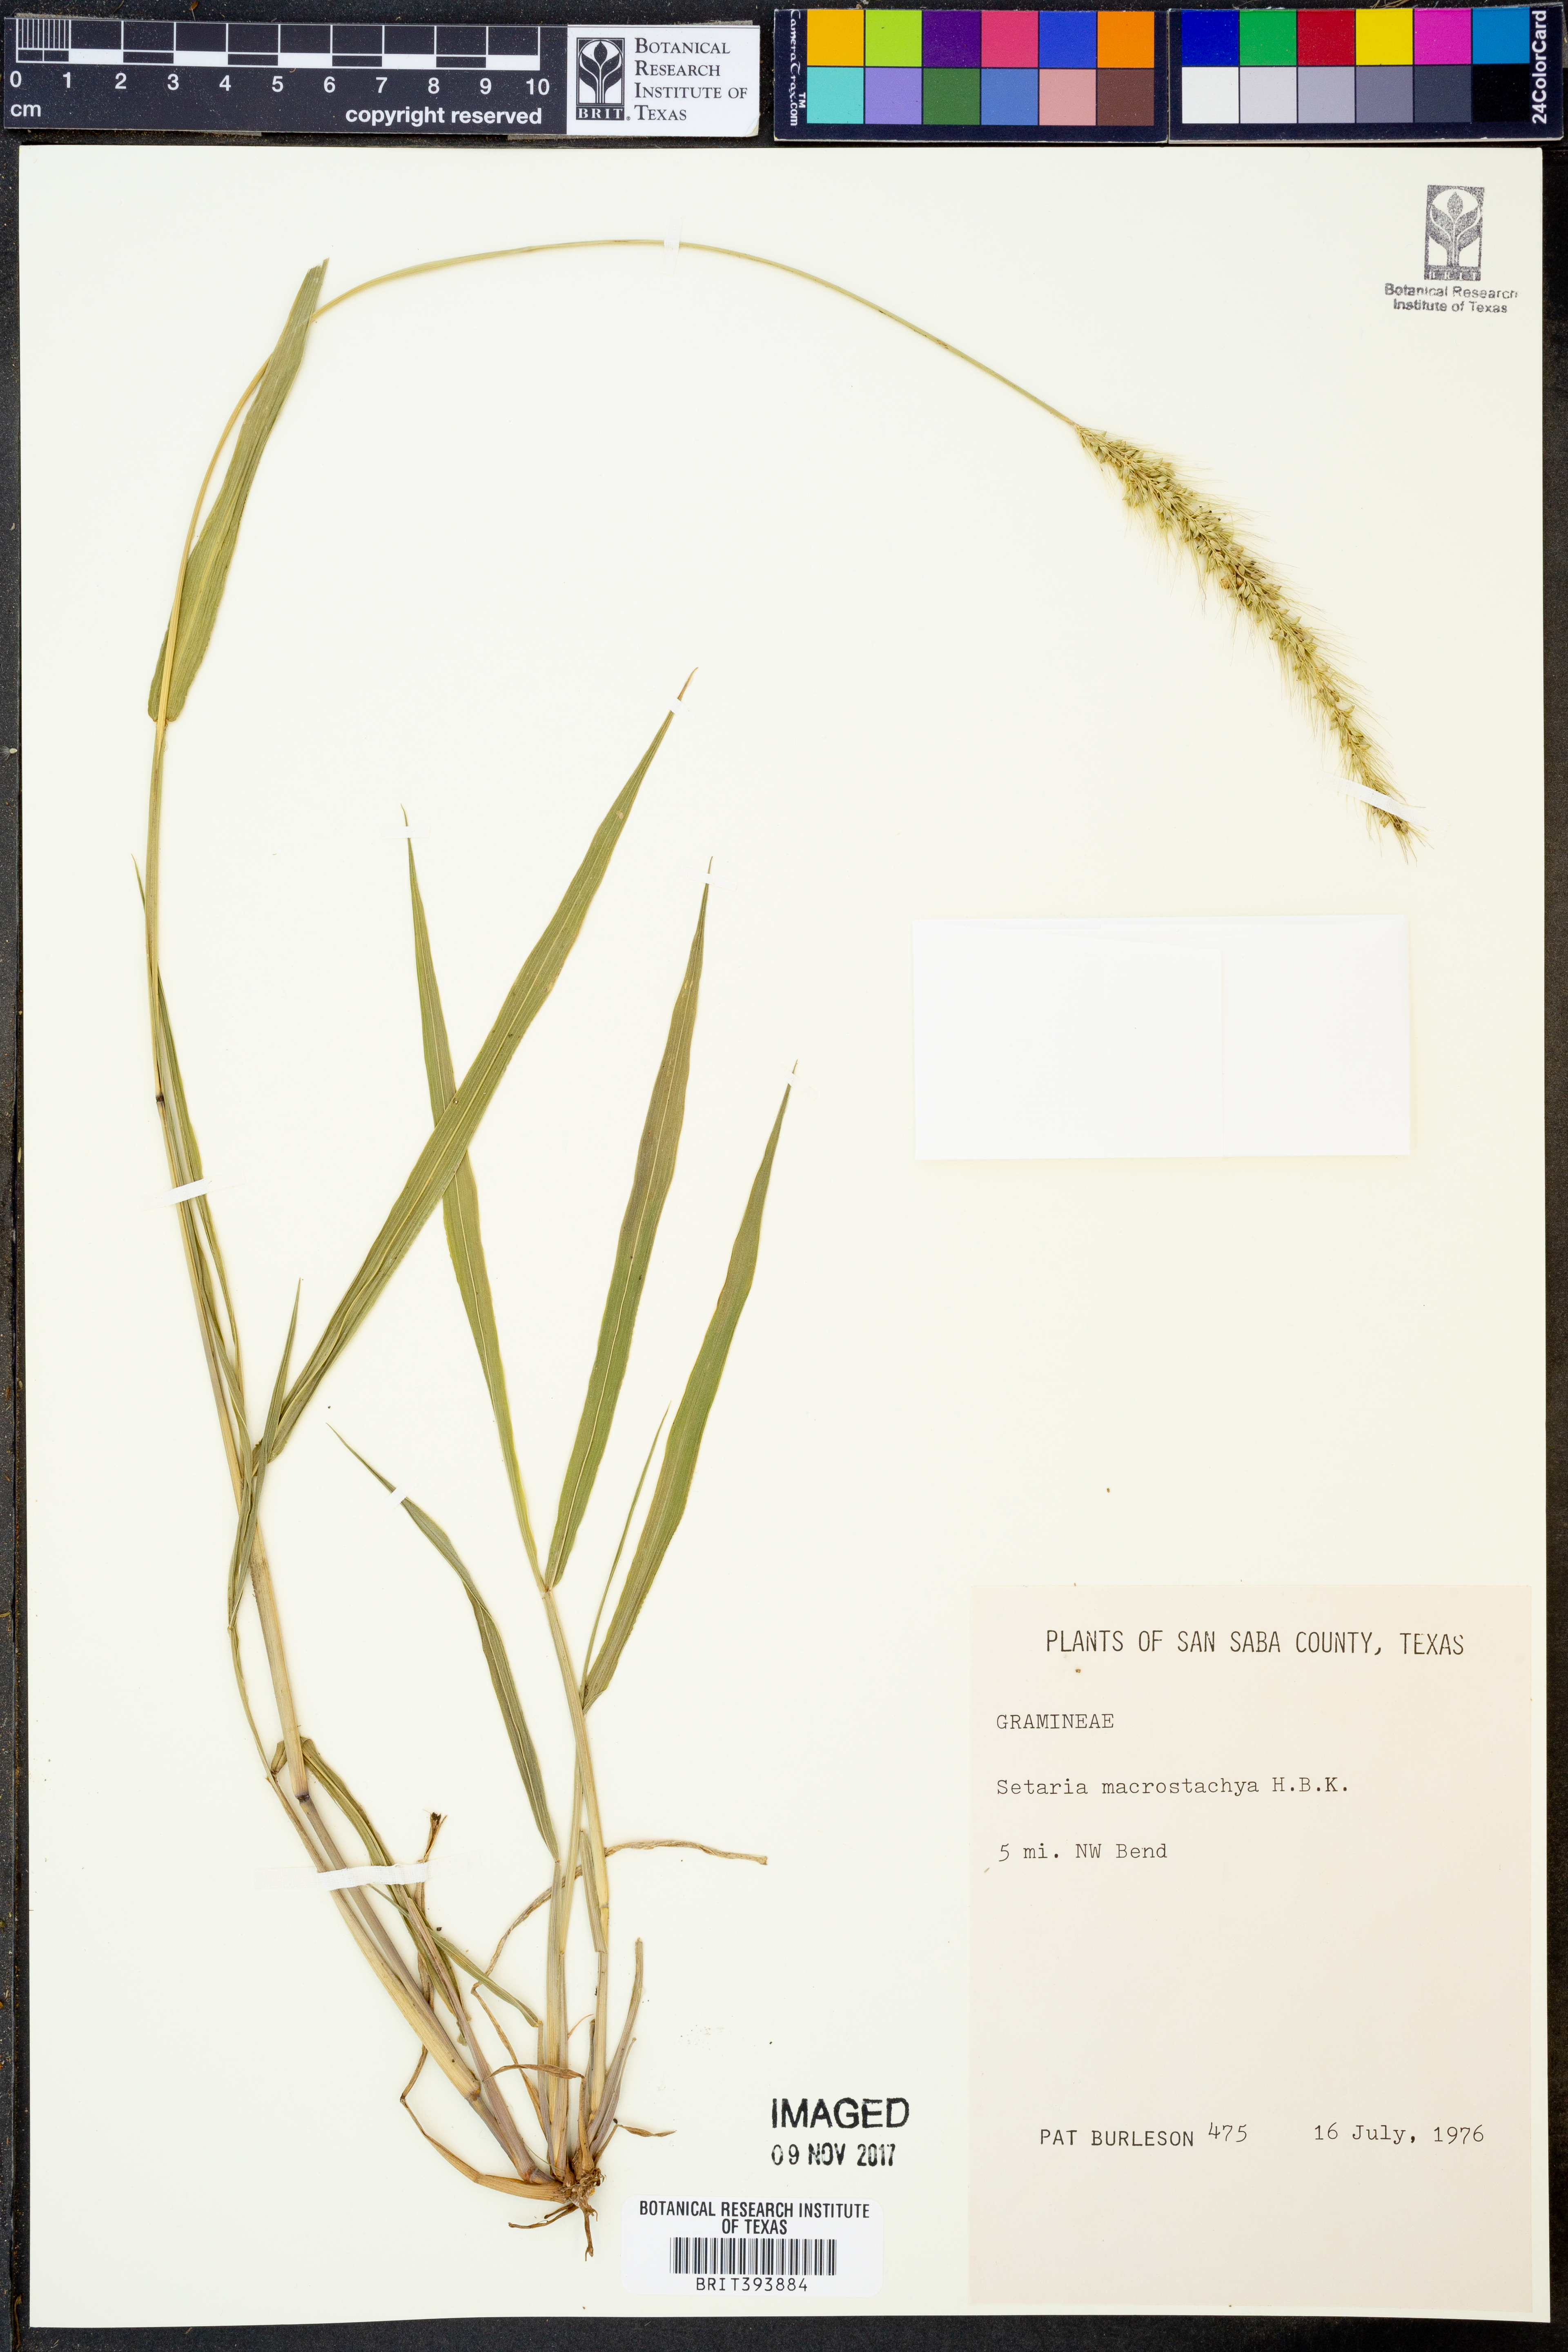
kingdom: Plantae
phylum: Tracheophyta
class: Liliopsida
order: Poales
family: Poaceae
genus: Setaria
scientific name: Setaria macrostachya
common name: Plains bristle grass
